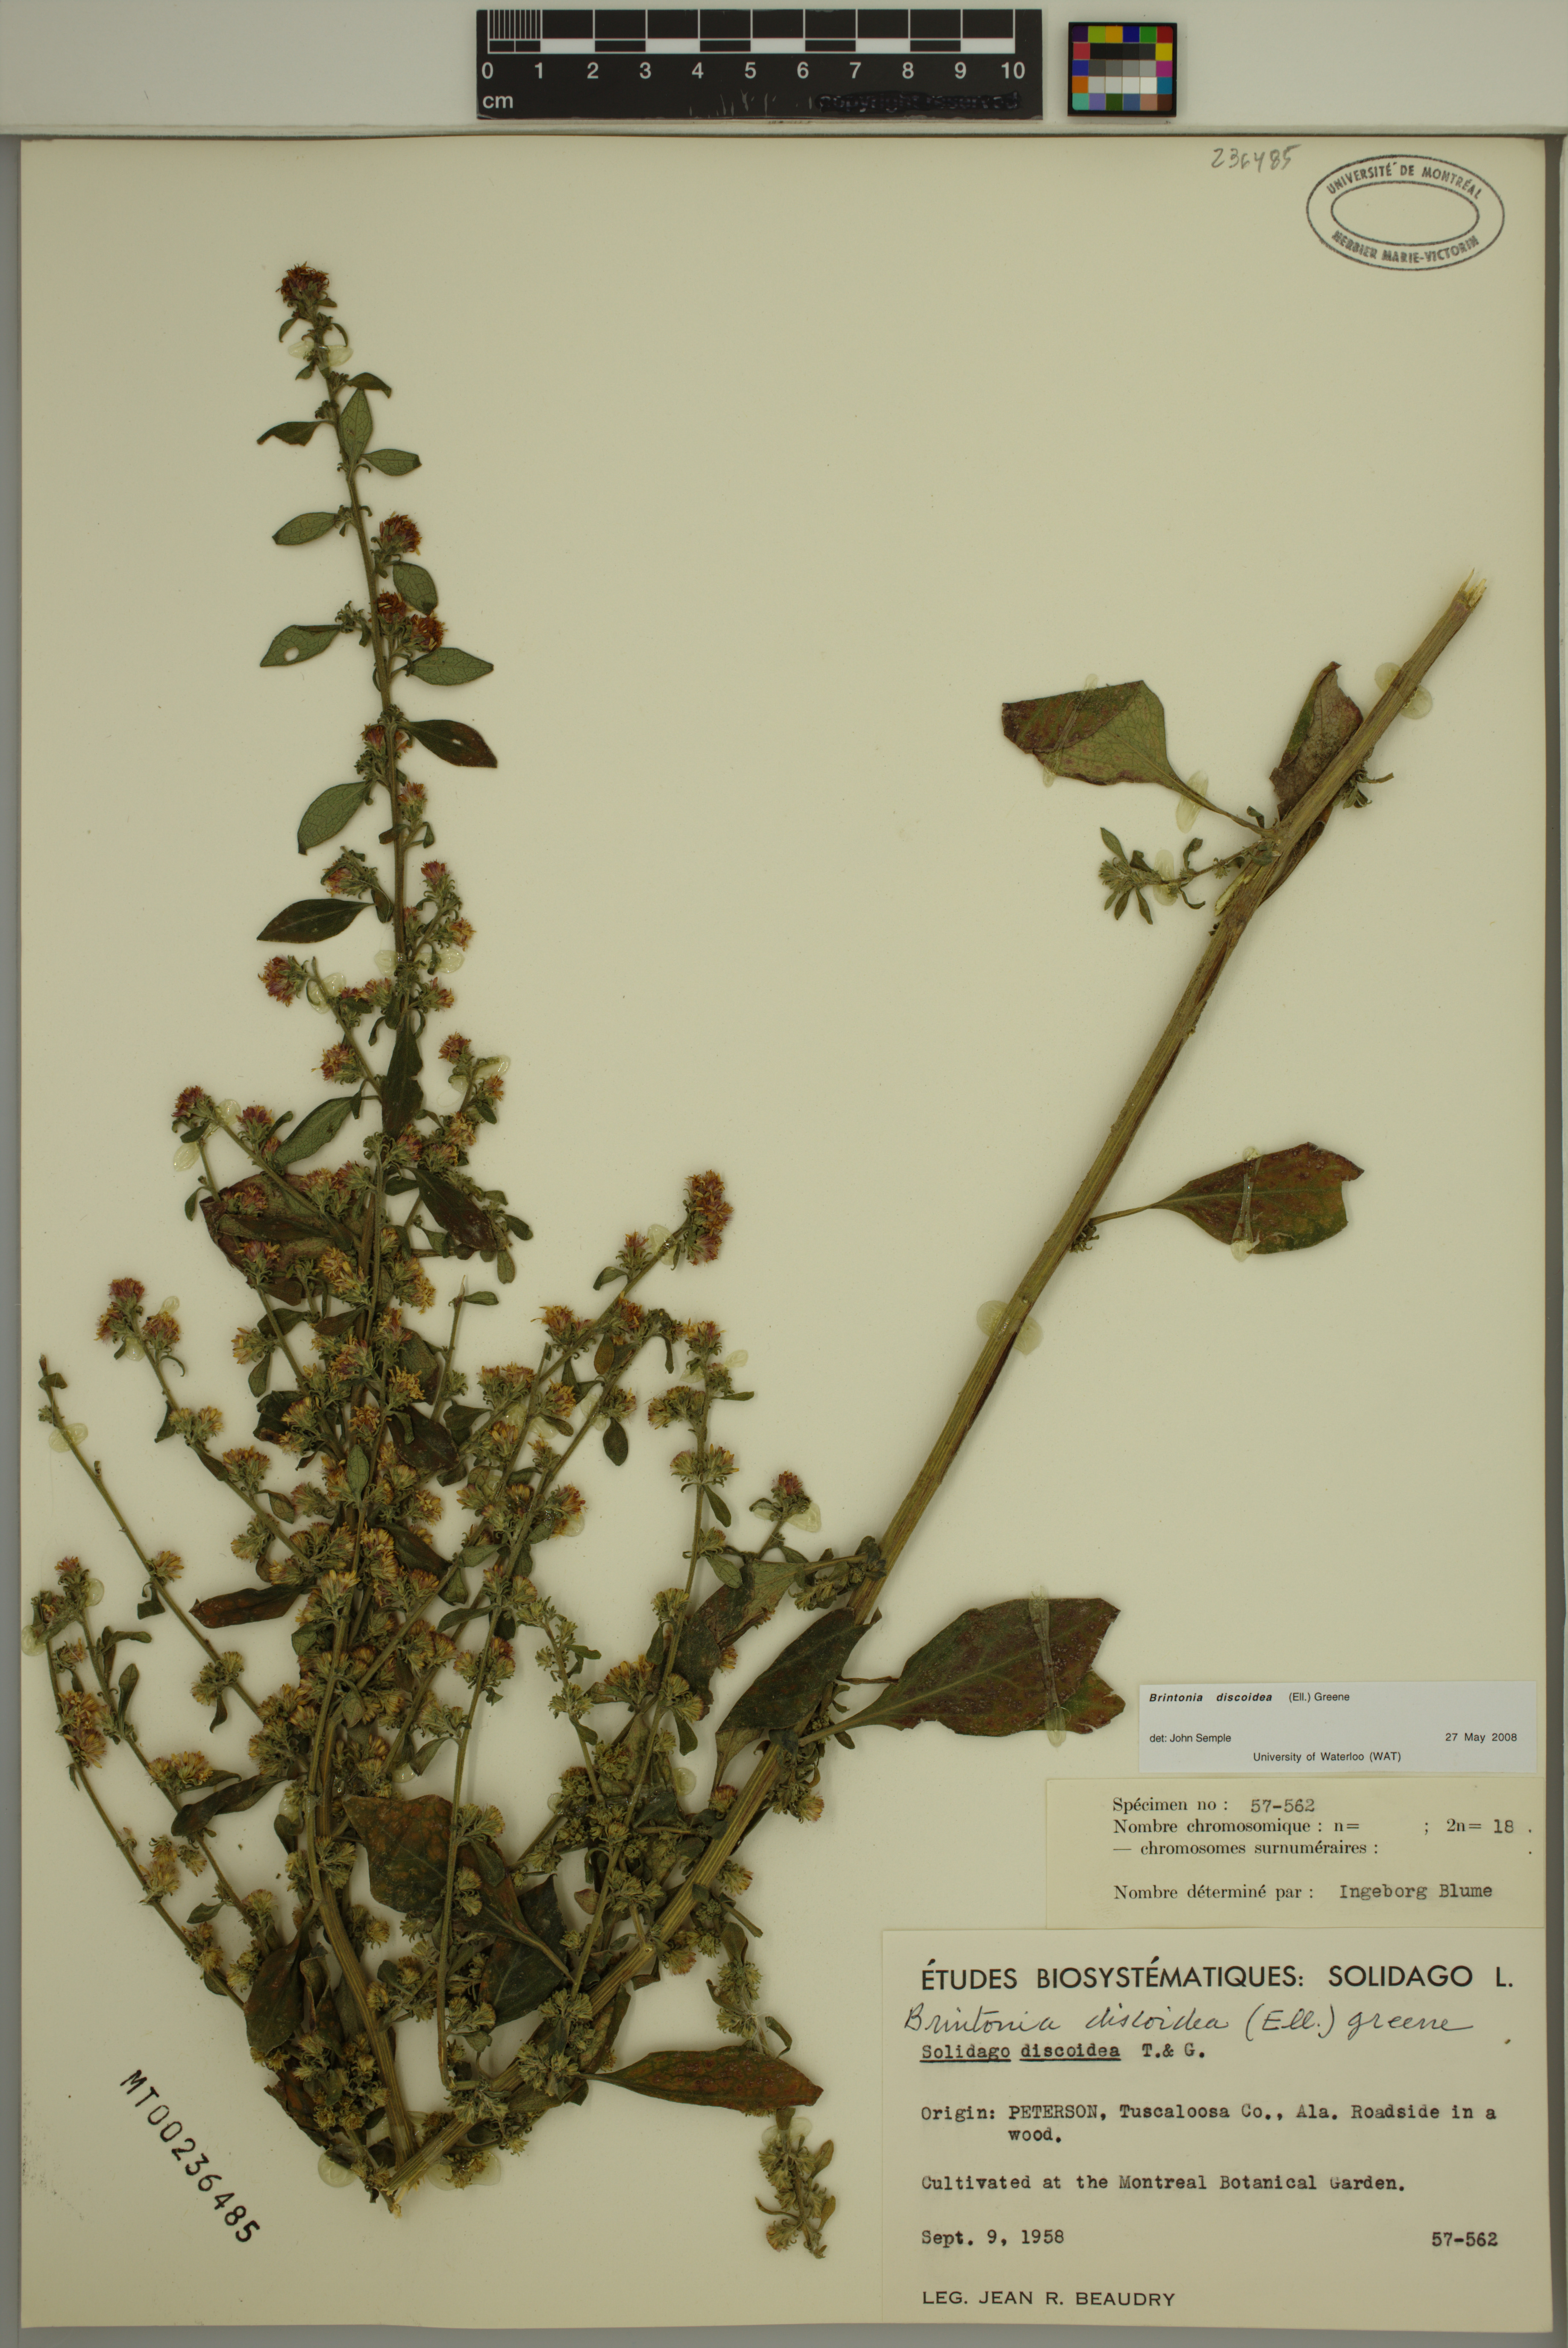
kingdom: Plantae
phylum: Tracheophyta
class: Magnoliopsida
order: Asterales
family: Asteraceae
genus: Solidago
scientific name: Solidago discoidea
